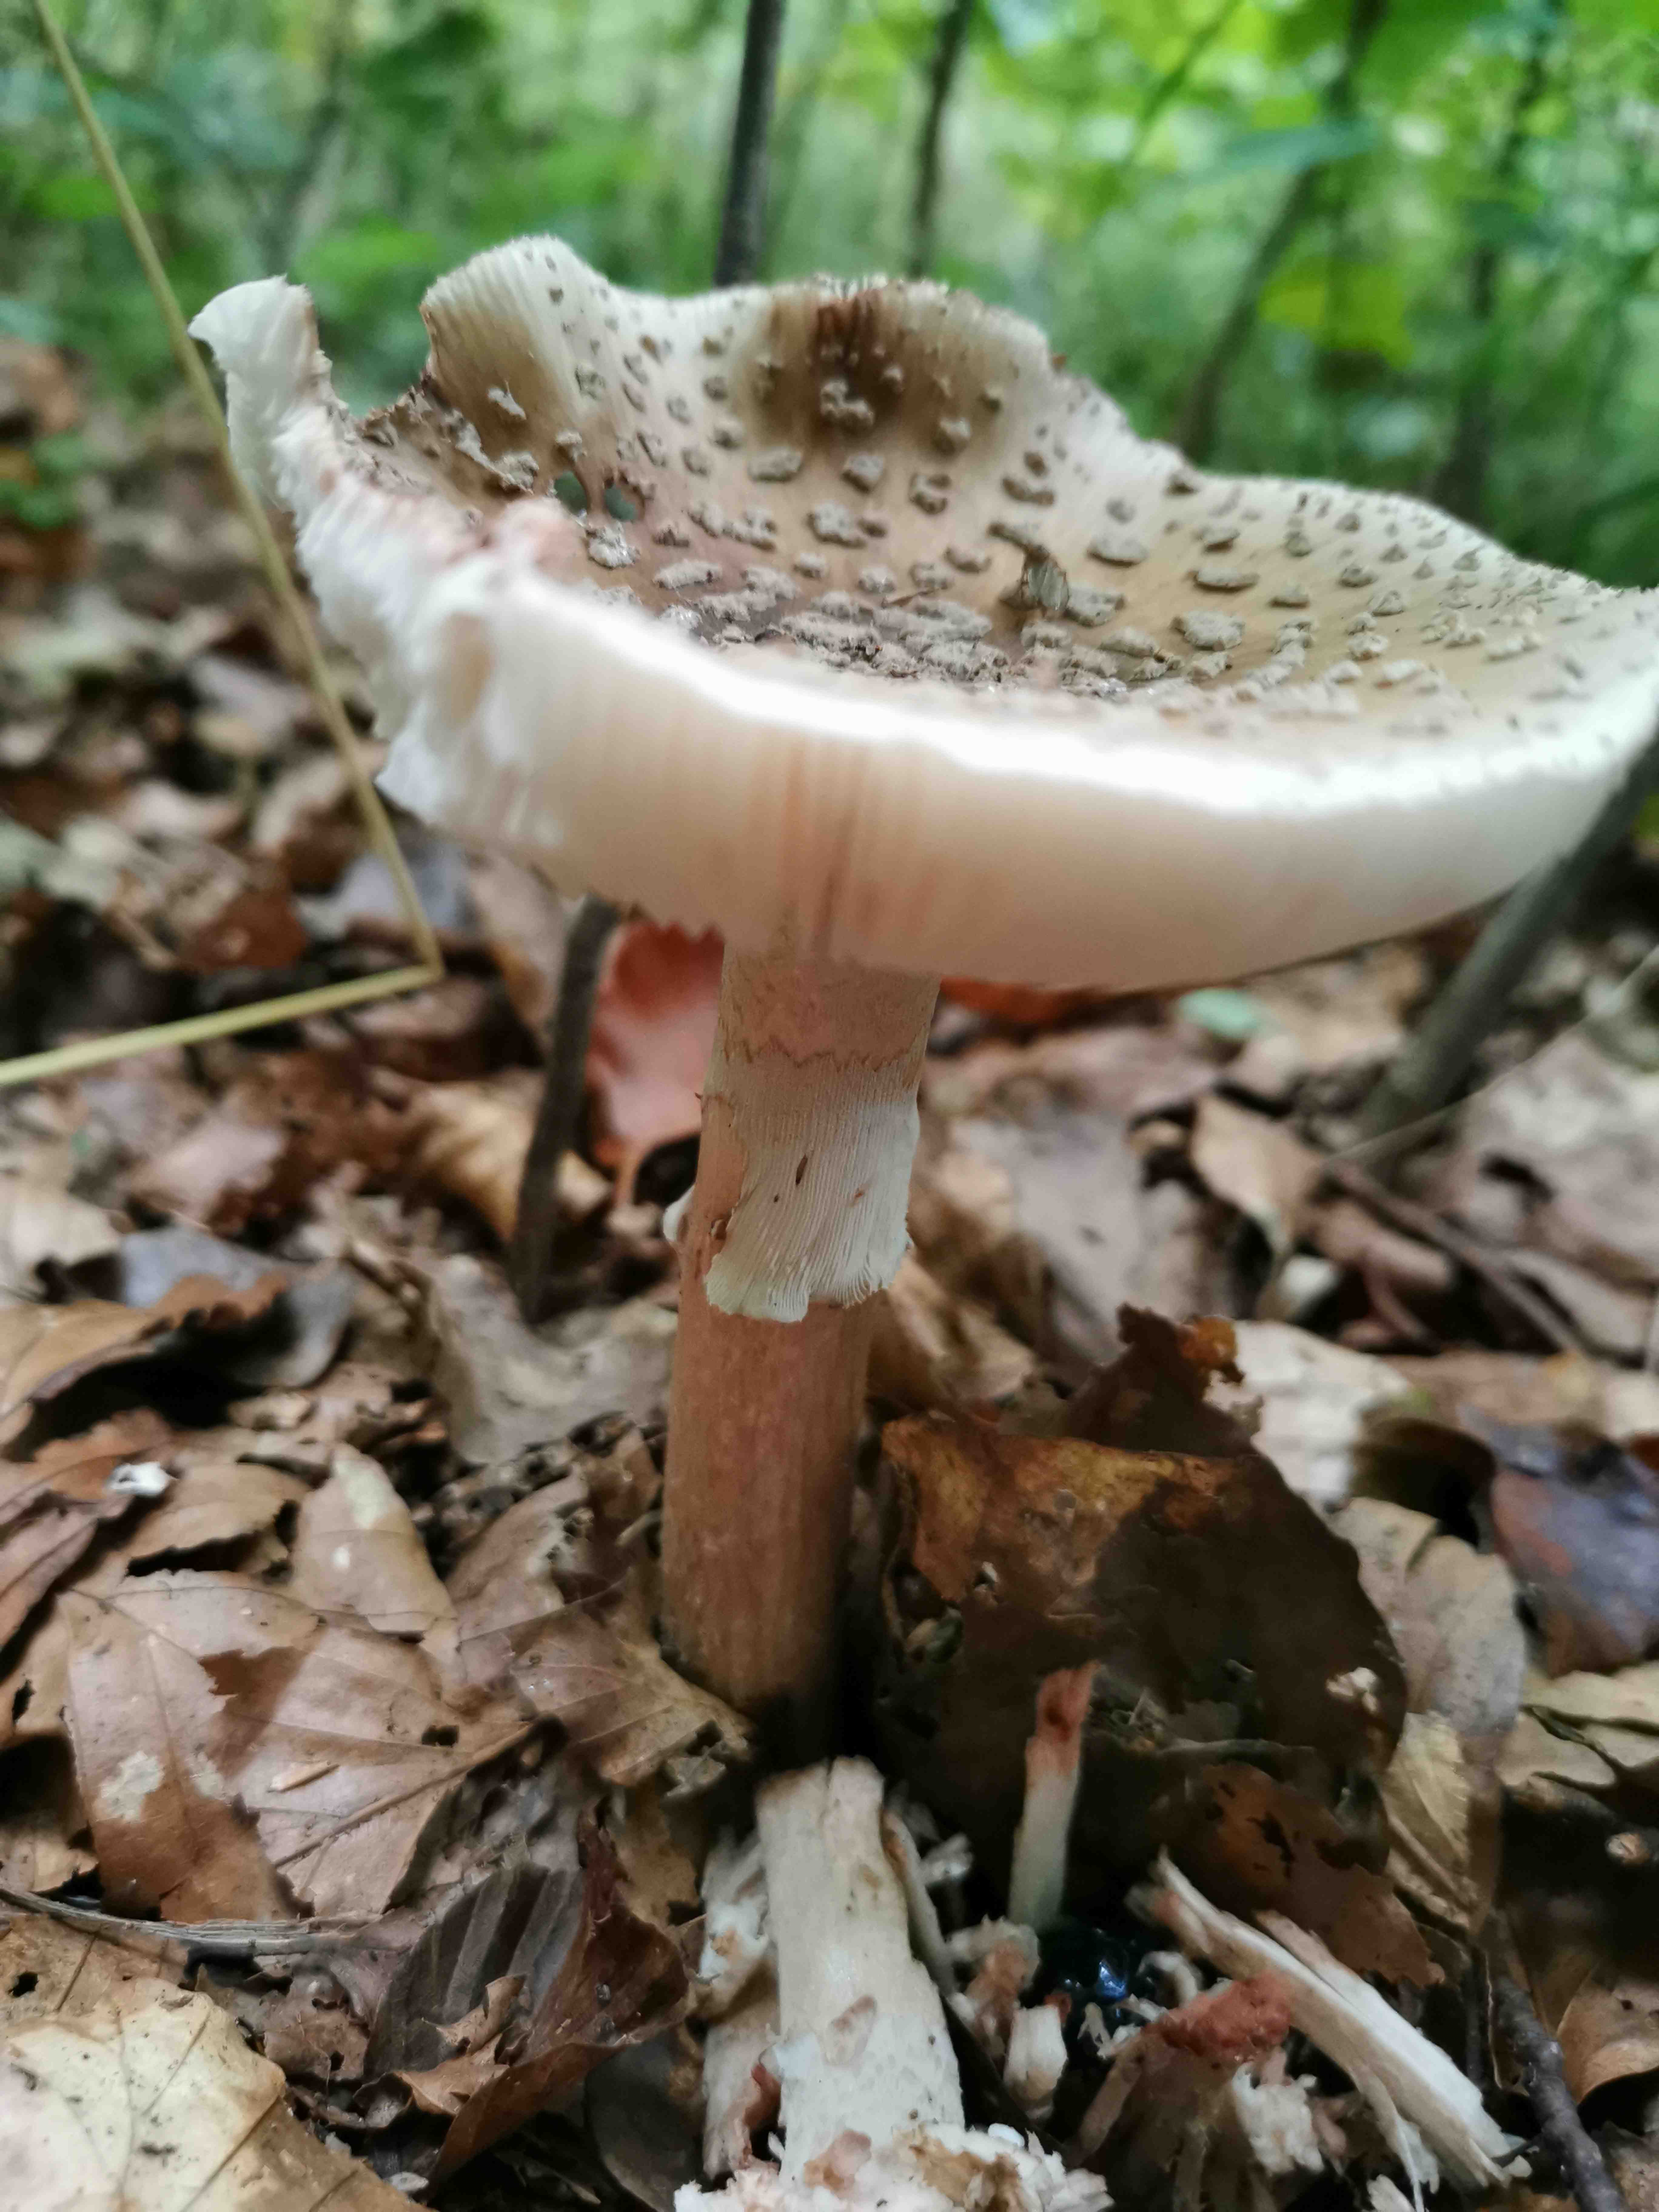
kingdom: Fungi
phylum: Basidiomycota
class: Agaricomycetes
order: Agaricales
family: Amanitaceae
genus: Amanita
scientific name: Amanita rubescens
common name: rødmende fluesvamp
